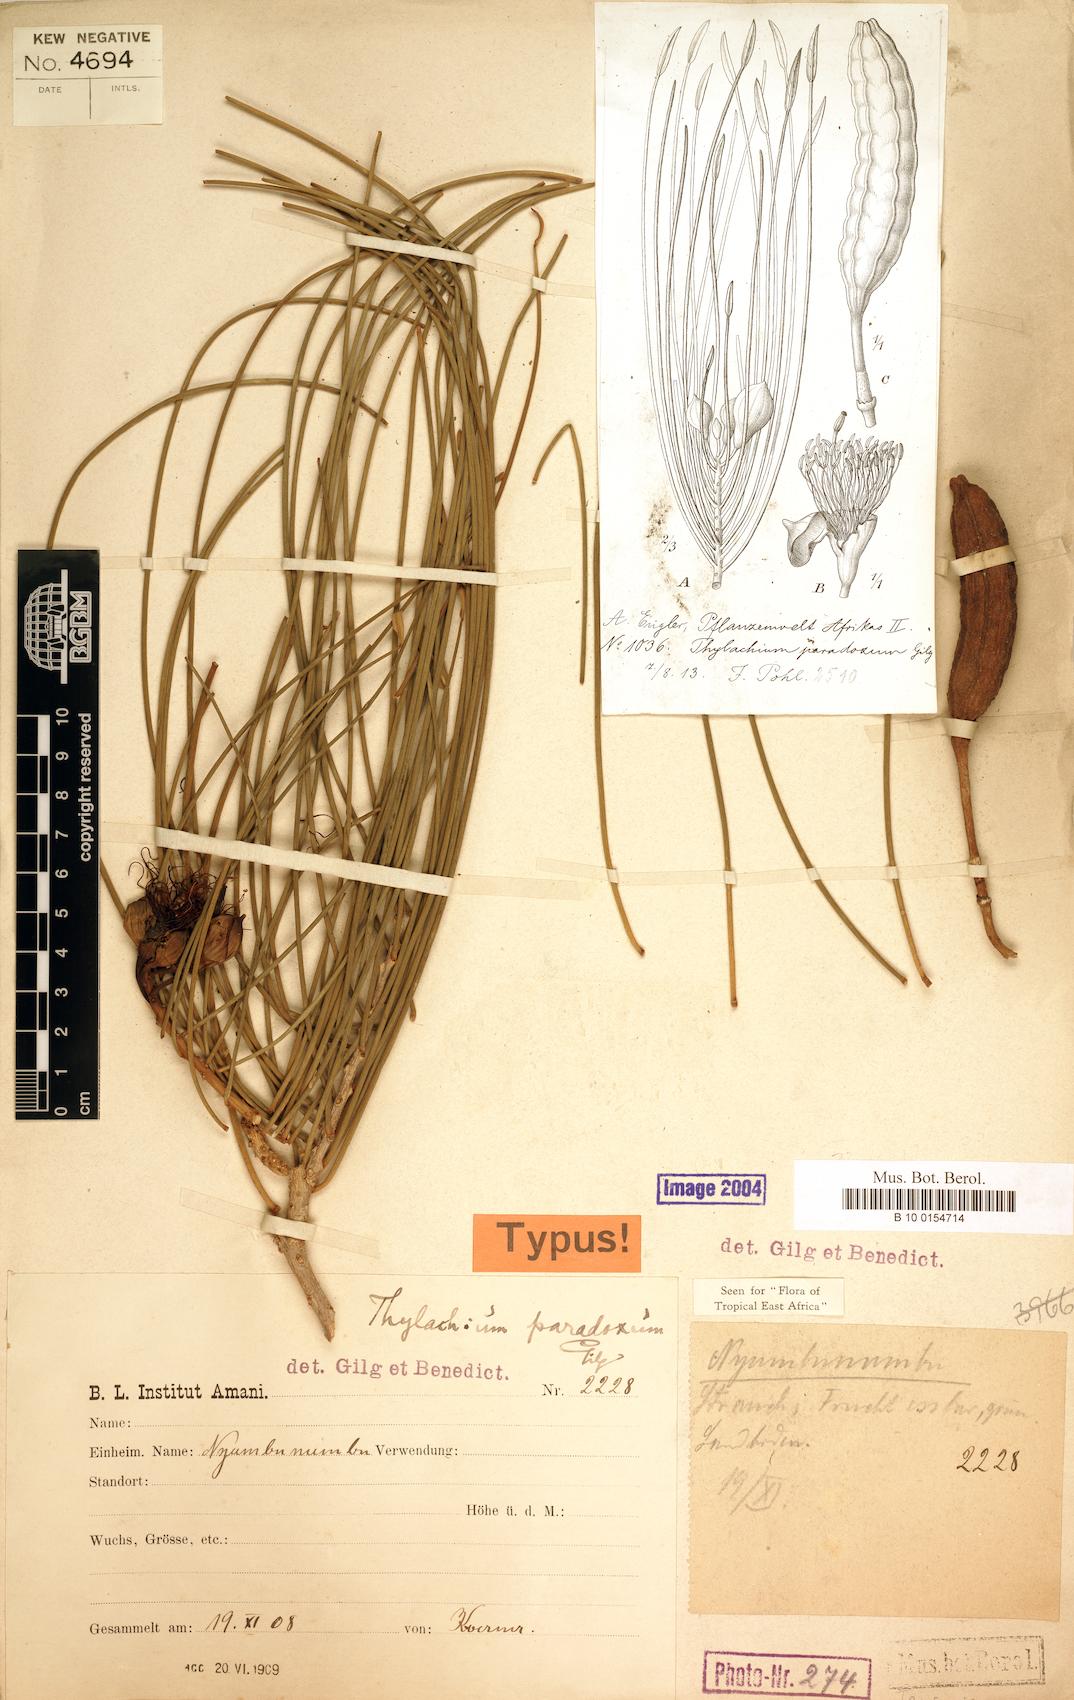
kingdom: Plantae
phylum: Tracheophyta
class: Magnoliopsida
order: Brassicales
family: Capparaceae
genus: Thilachium
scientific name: Thilachium paradoxum
